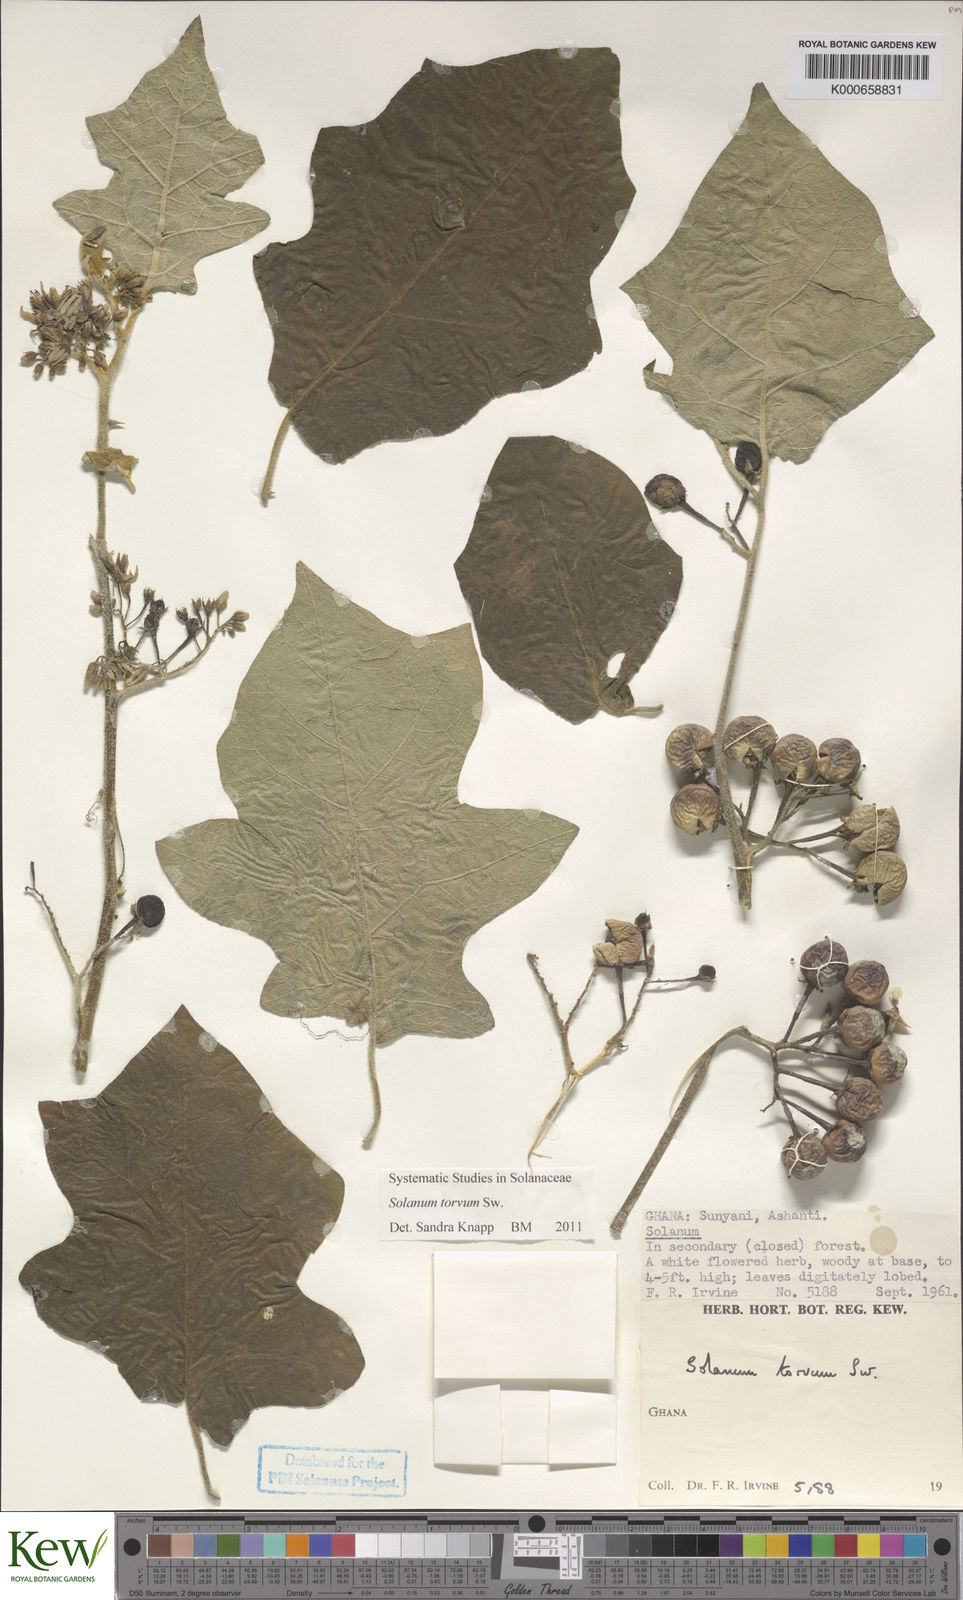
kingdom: Plantae
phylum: Tracheophyta
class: Magnoliopsida
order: Solanales
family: Solanaceae
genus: Solanum
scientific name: Solanum torvum
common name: Turkey berry
